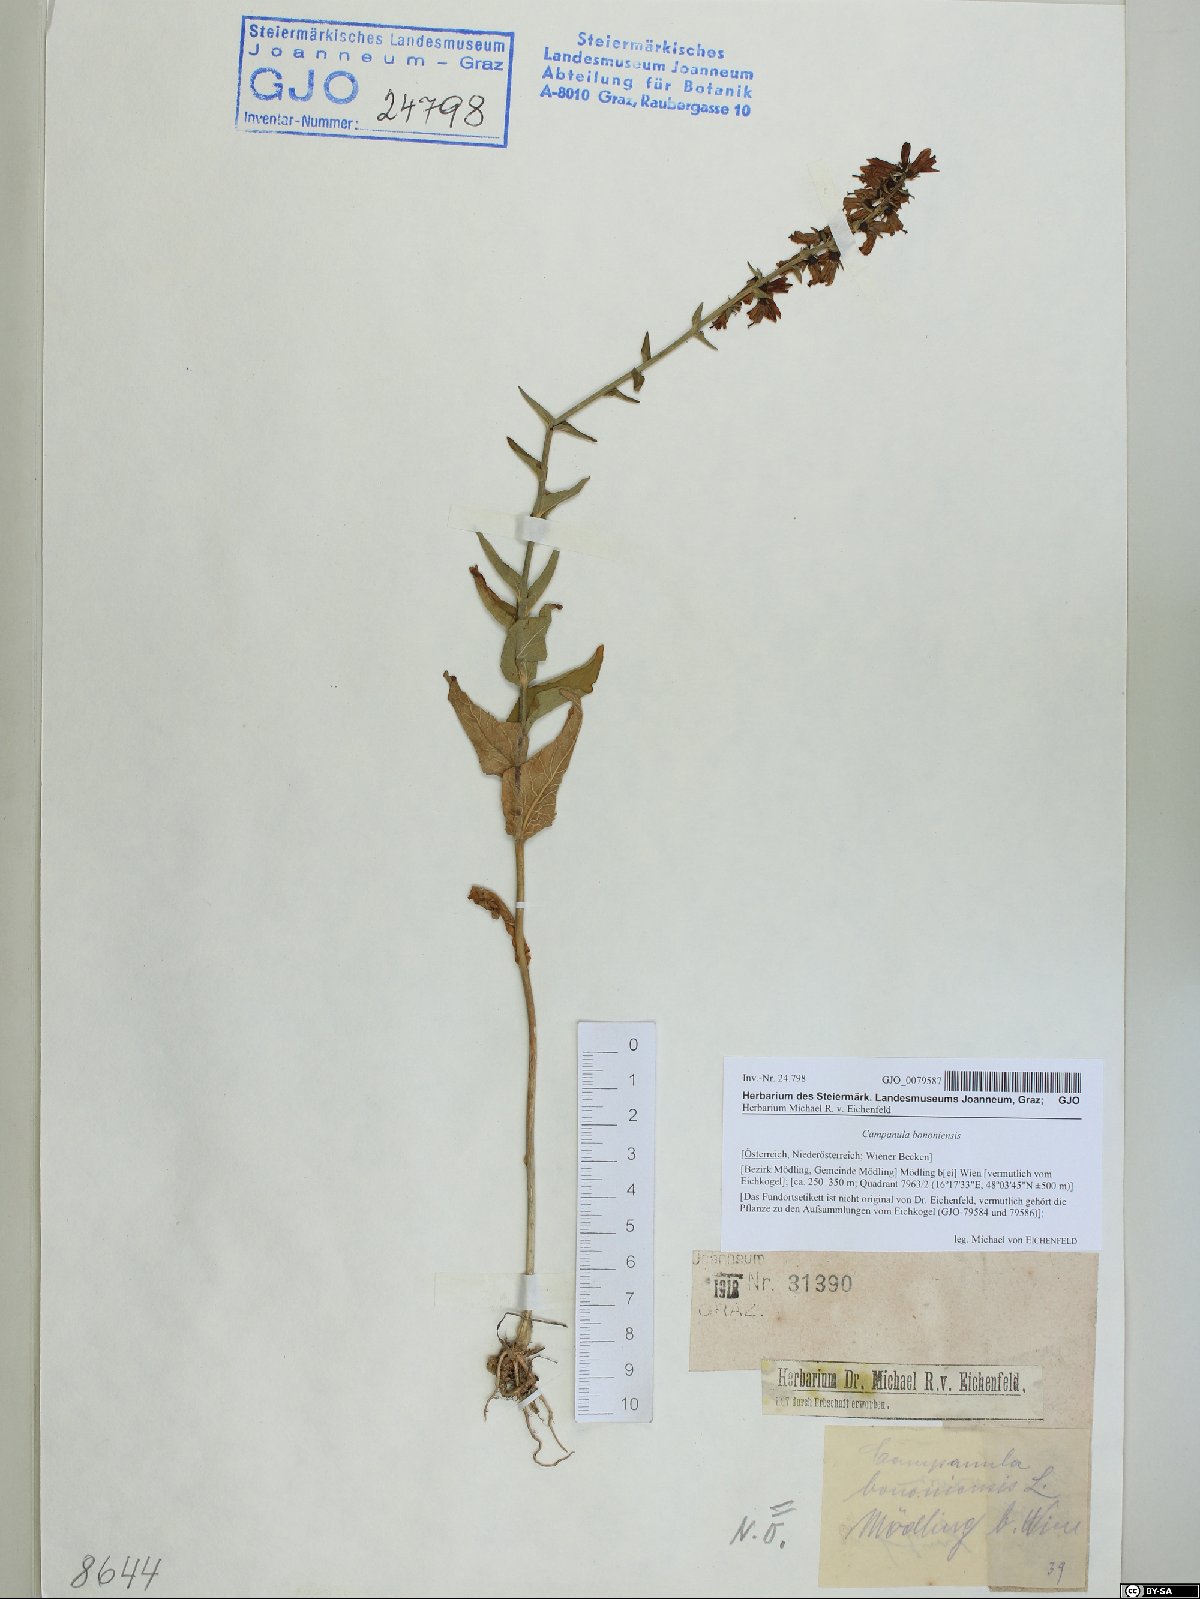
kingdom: Plantae
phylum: Tracheophyta
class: Magnoliopsida
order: Asterales
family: Campanulaceae
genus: Campanula
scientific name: Campanula bononiensis
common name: Pale bellflower
